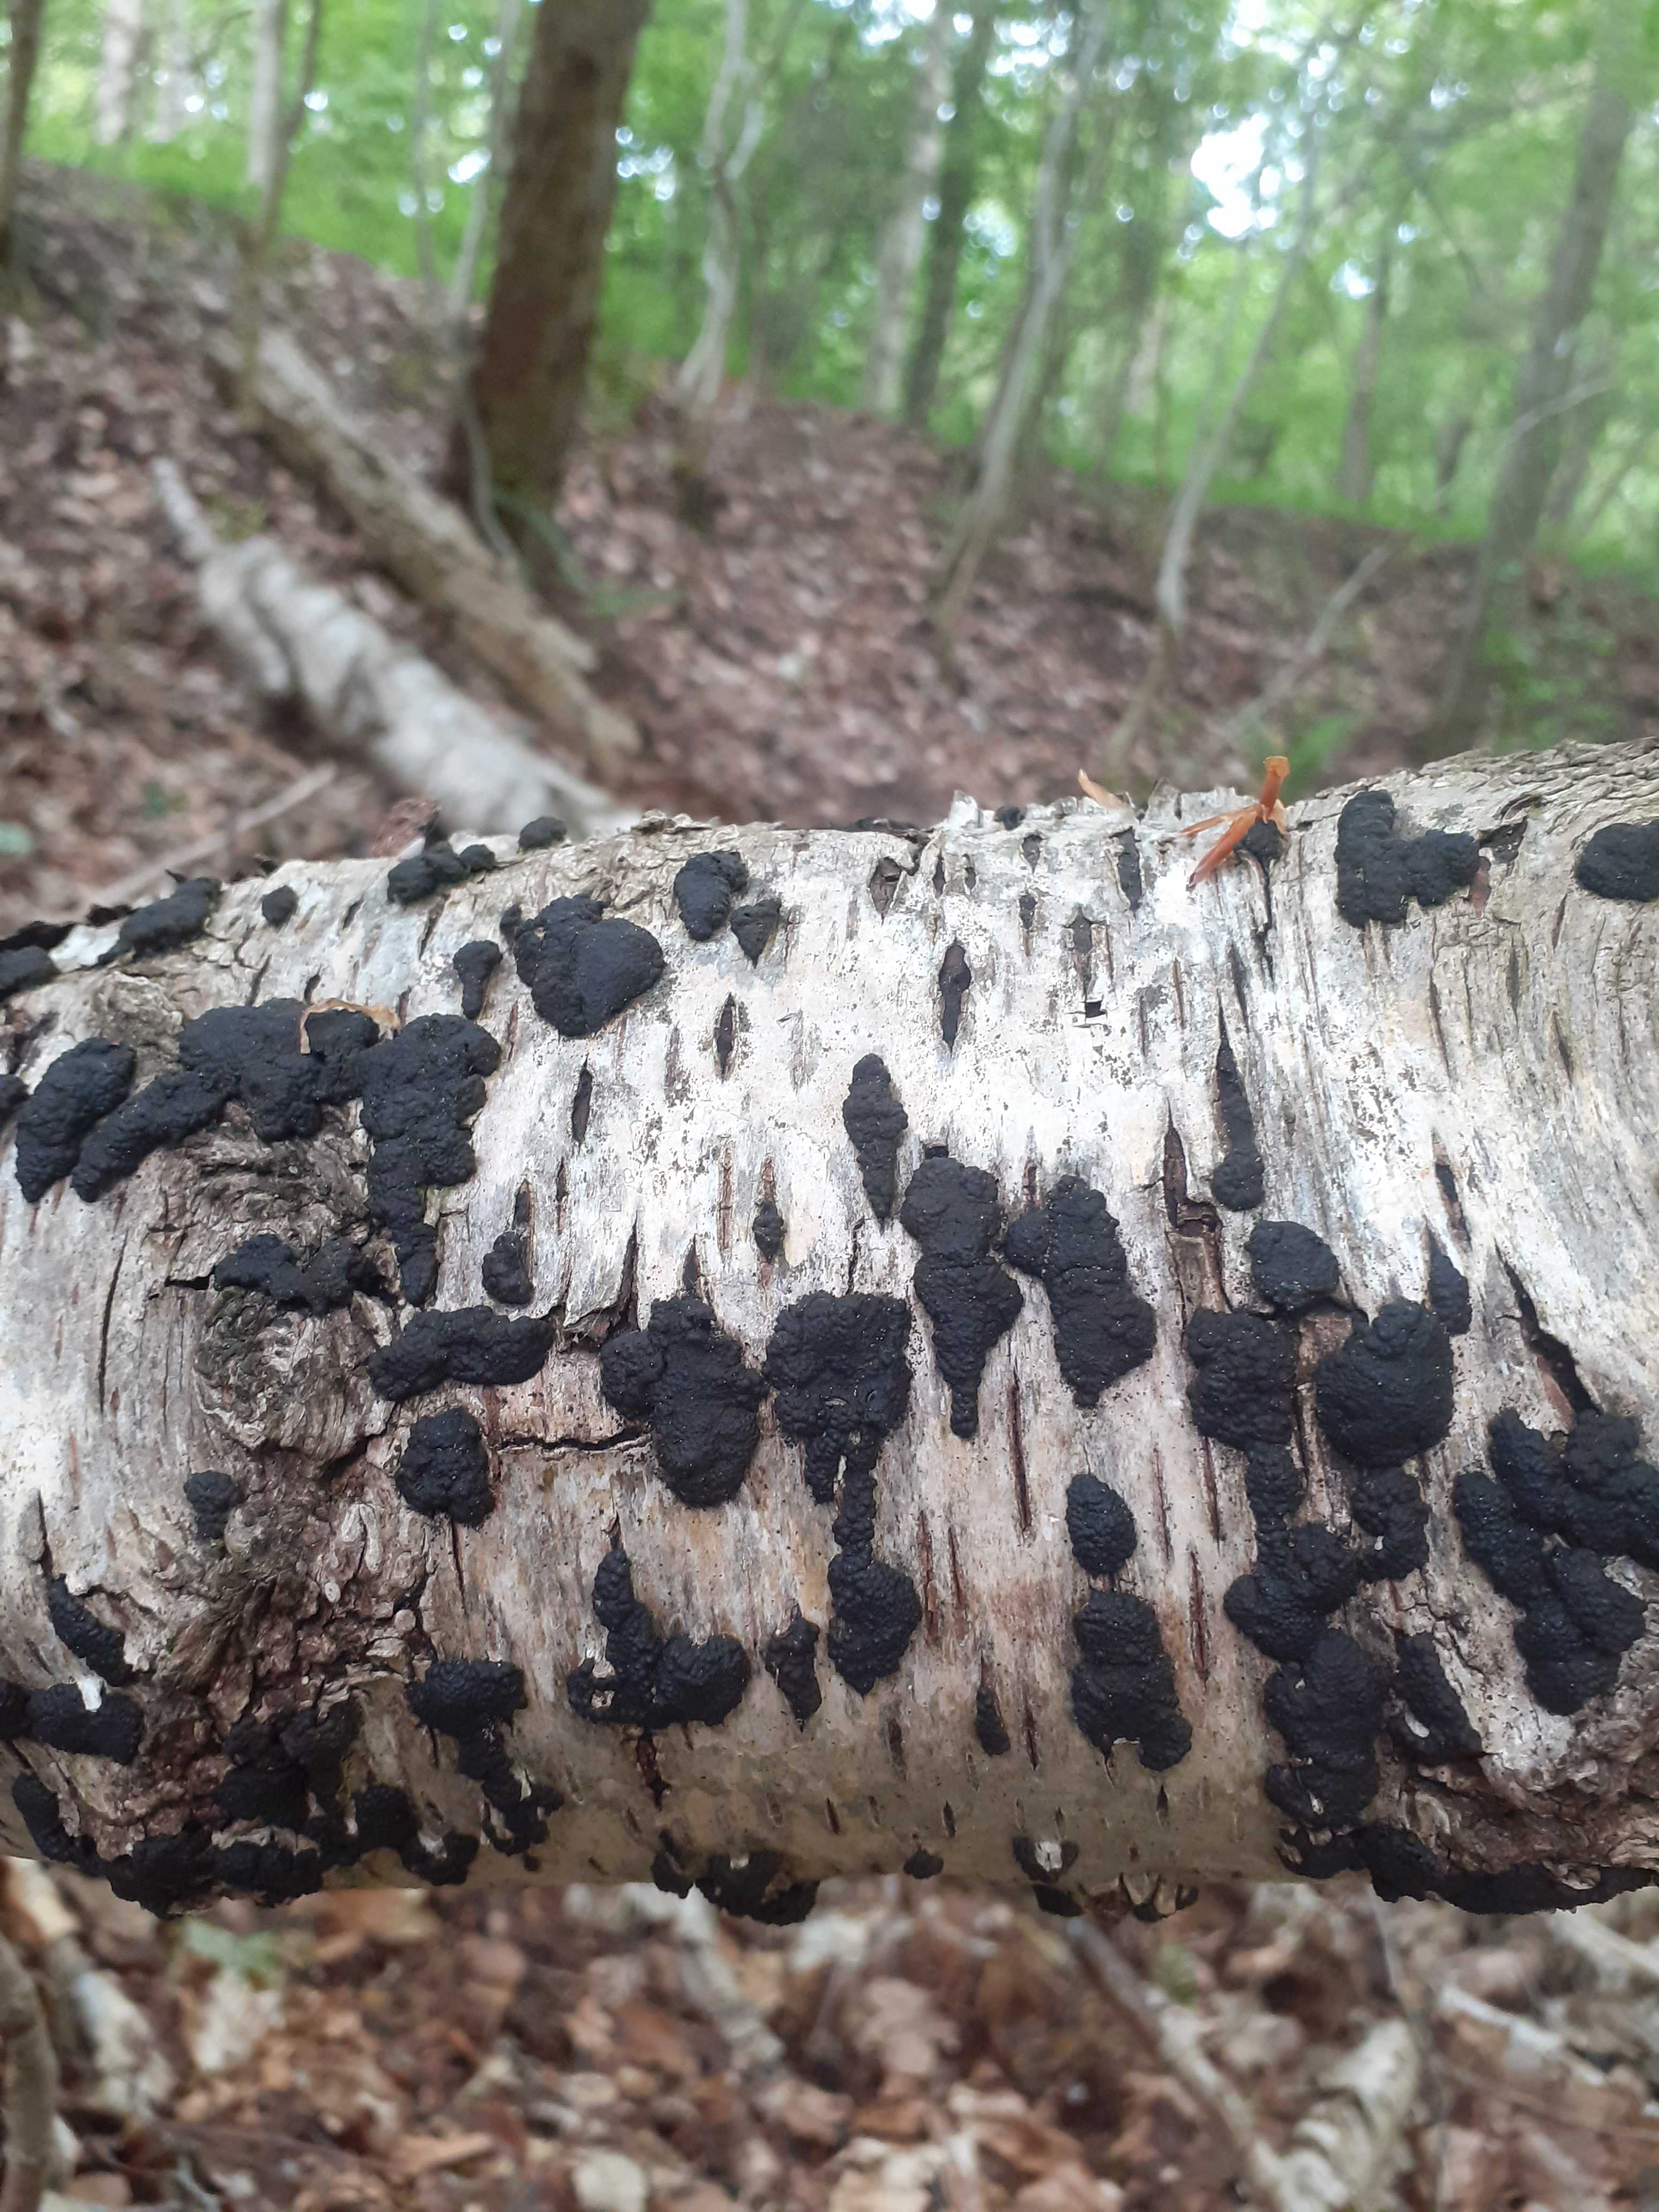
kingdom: Fungi
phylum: Ascomycota
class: Sordariomycetes
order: Xylariales
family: Hypoxylaceae
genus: Jackrogersella
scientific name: Jackrogersella multiformis
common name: foranderlig kulbær
